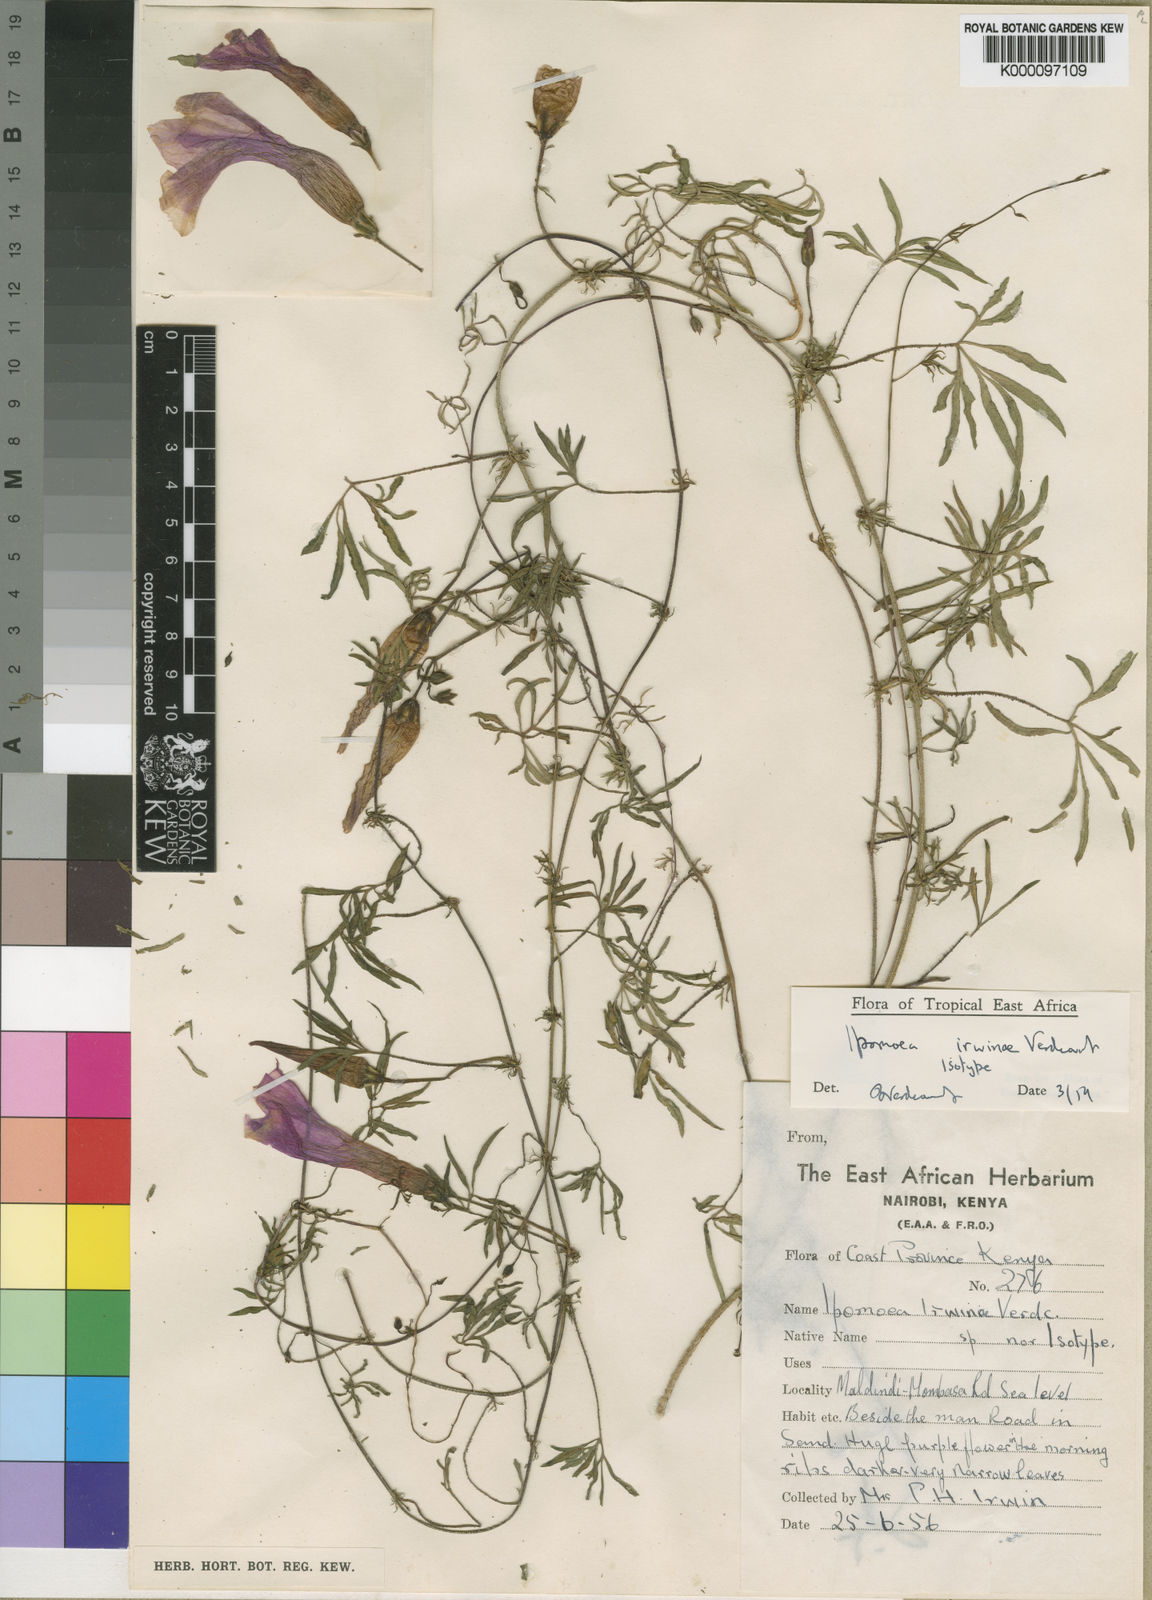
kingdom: Plantae
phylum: Tracheophyta
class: Magnoliopsida
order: Solanales
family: Convolvulaceae
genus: Ipomoea
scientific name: Ipomoea irwiniae
